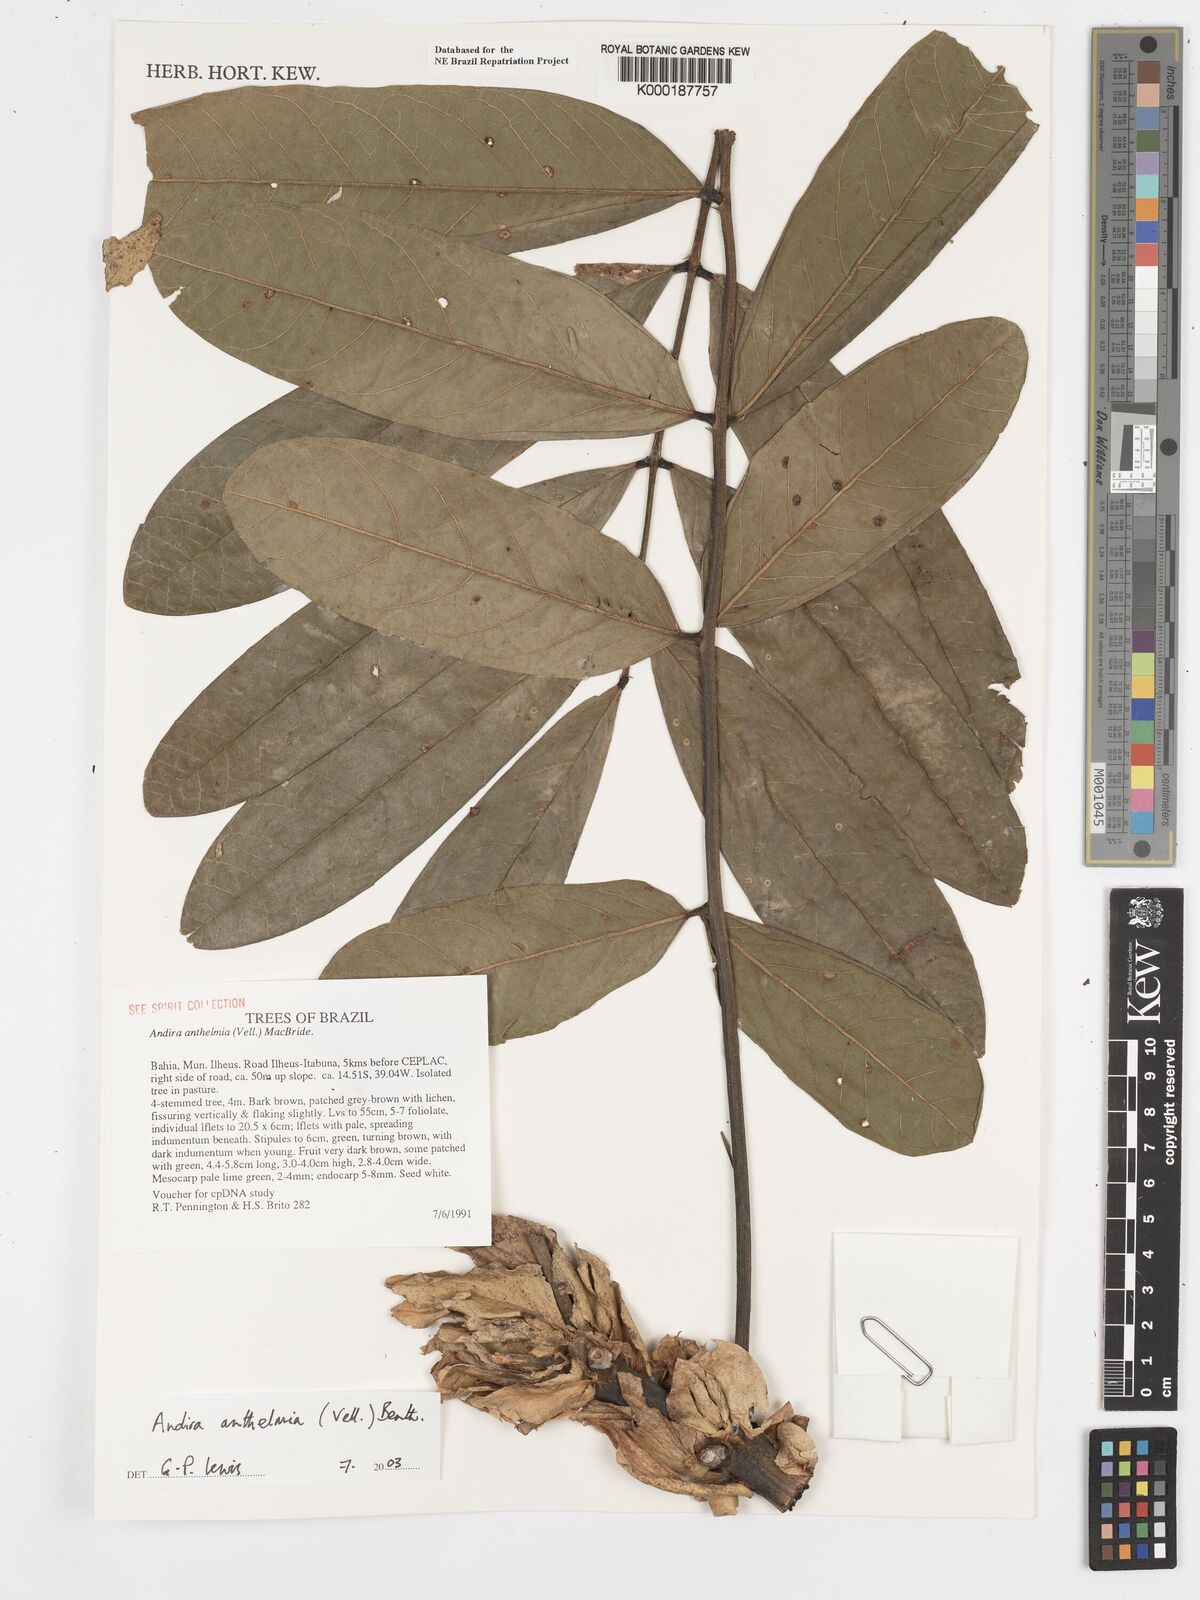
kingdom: Plantae
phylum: Tracheophyta
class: Magnoliopsida
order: Fabales
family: Fabaceae
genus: Andira
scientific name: Andira
